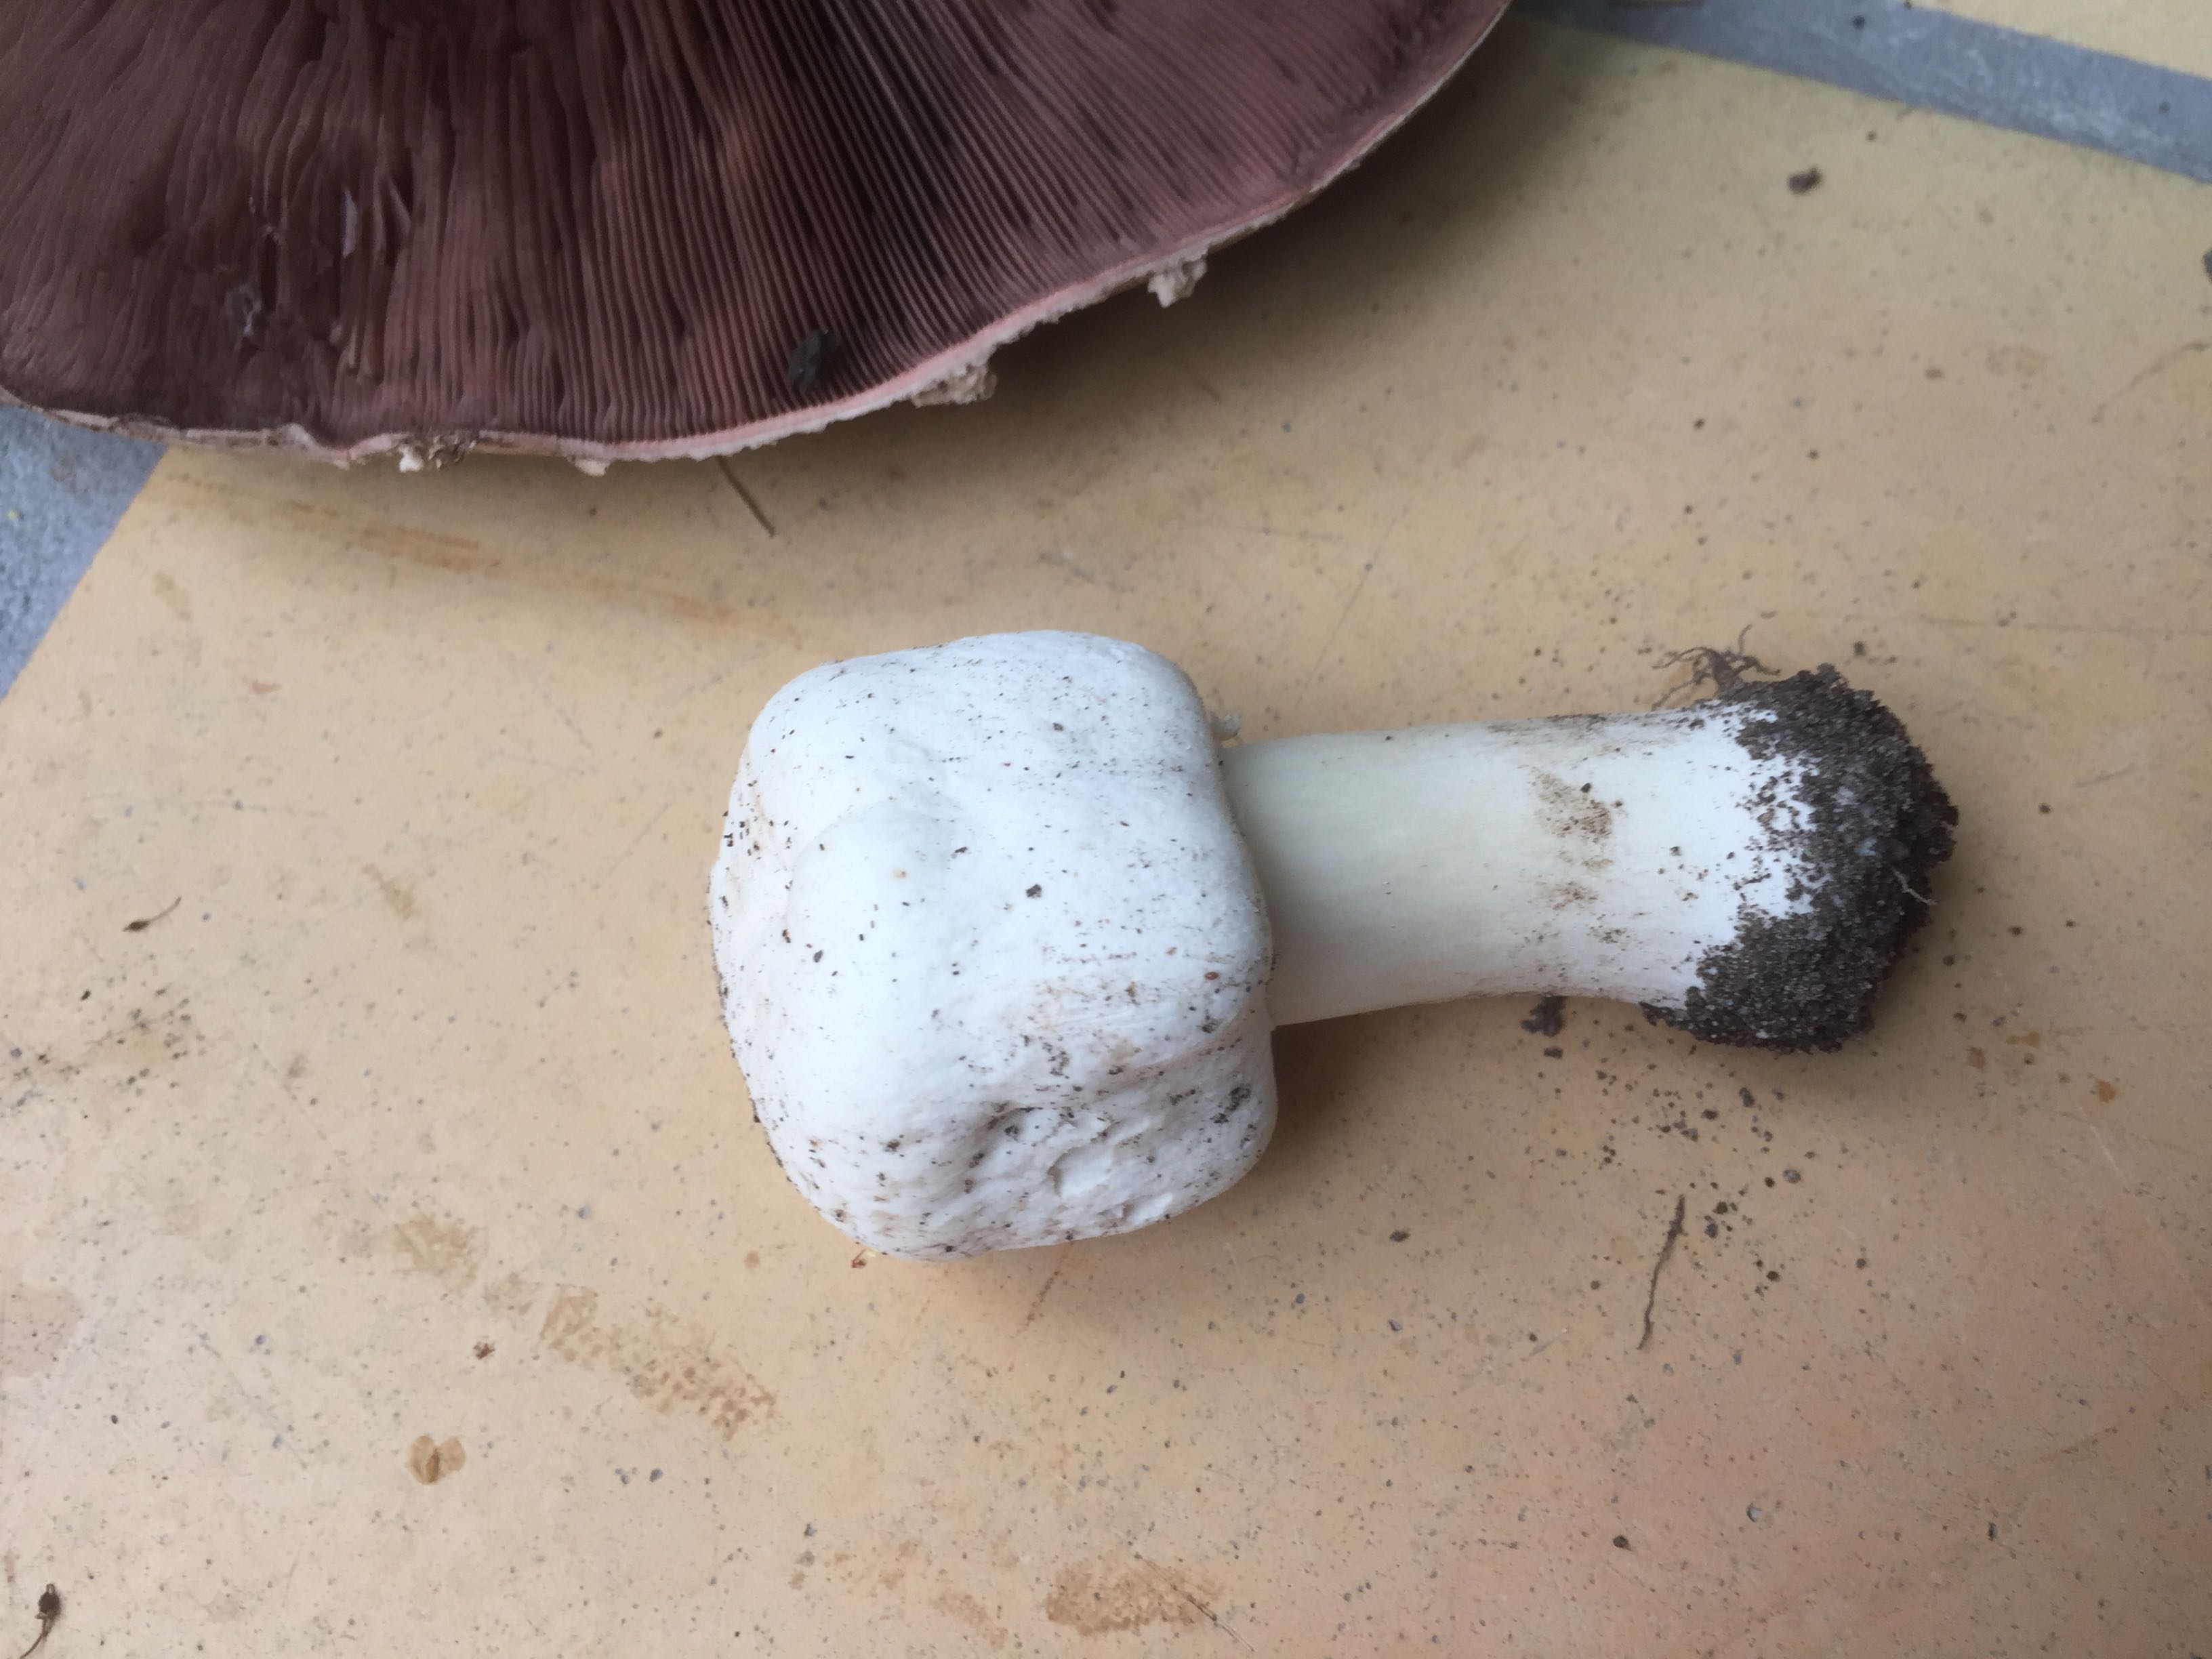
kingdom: Fungi
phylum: Basidiomycota
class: Agaricomycetes
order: Agaricales
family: Agaricaceae
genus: Agaricus
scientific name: Agaricus xanthodermus
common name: karbol-champignon
